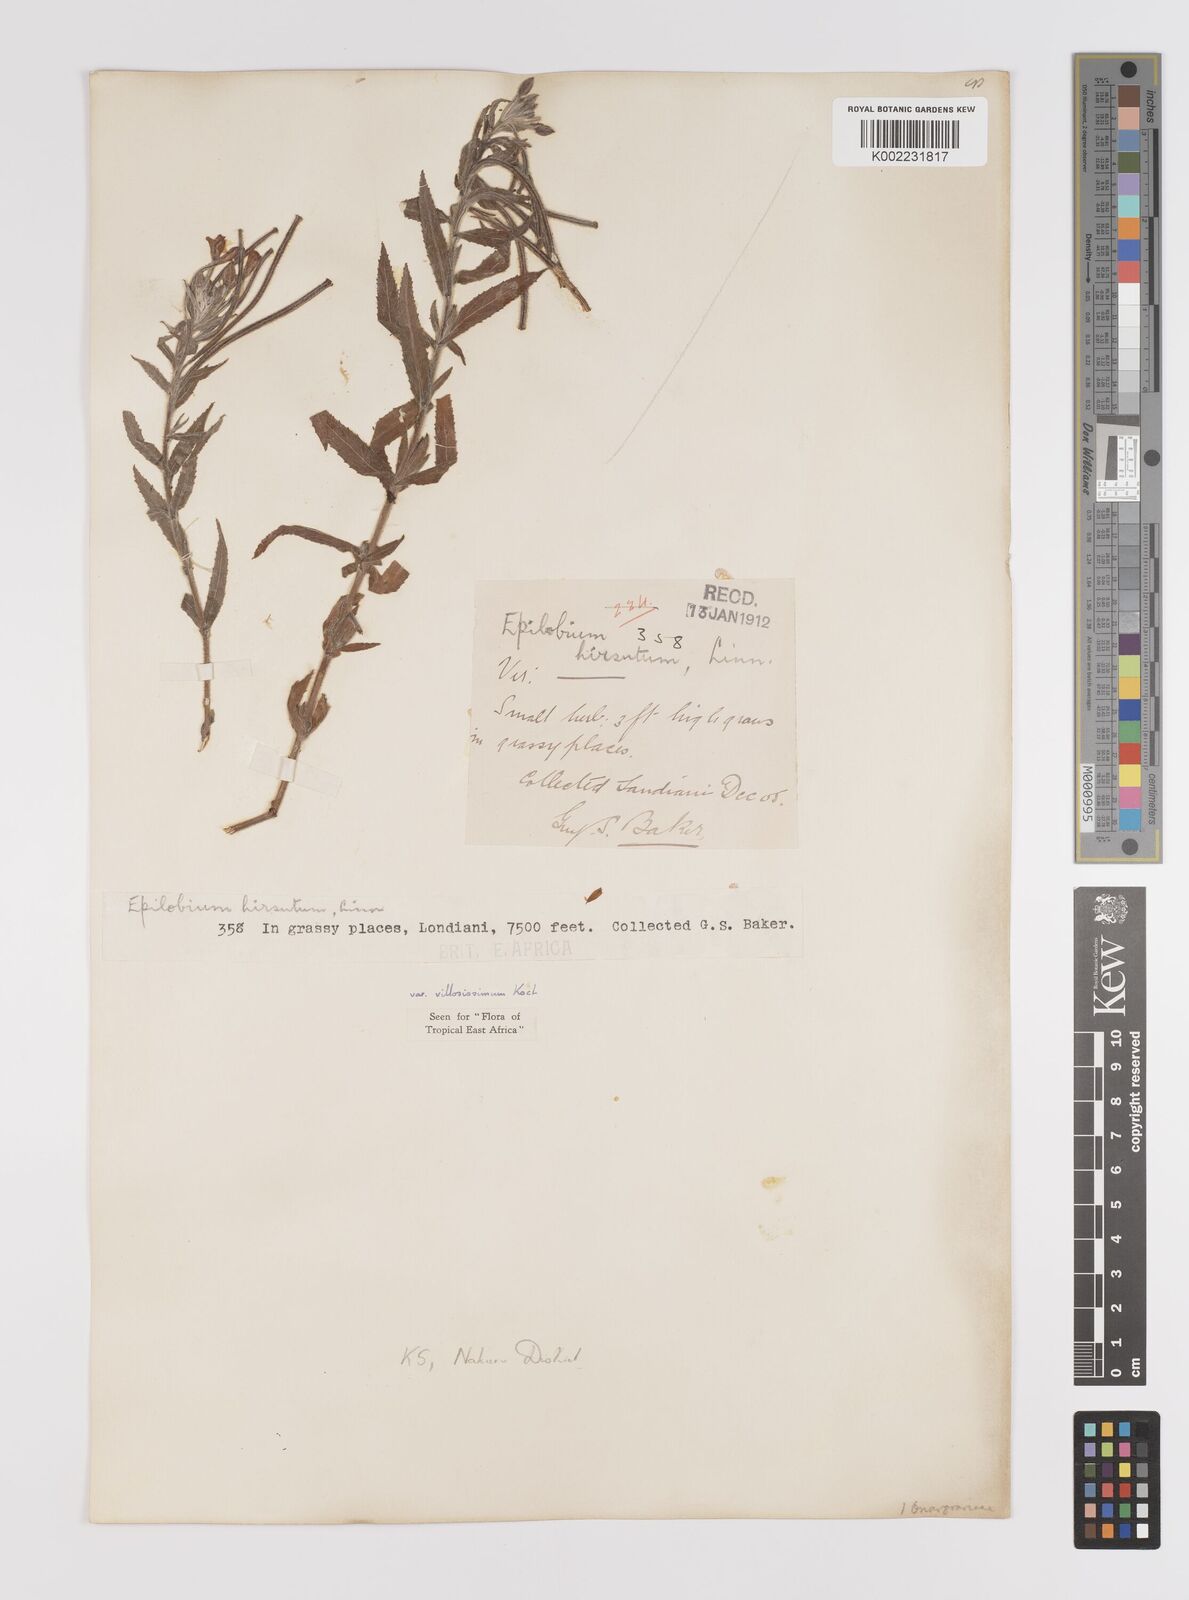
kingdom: Plantae
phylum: Tracheophyta
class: Magnoliopsida
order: Myrtales
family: Onagraceae
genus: Epilobium
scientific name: Epilobium hirsutum
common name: Great willowherb
